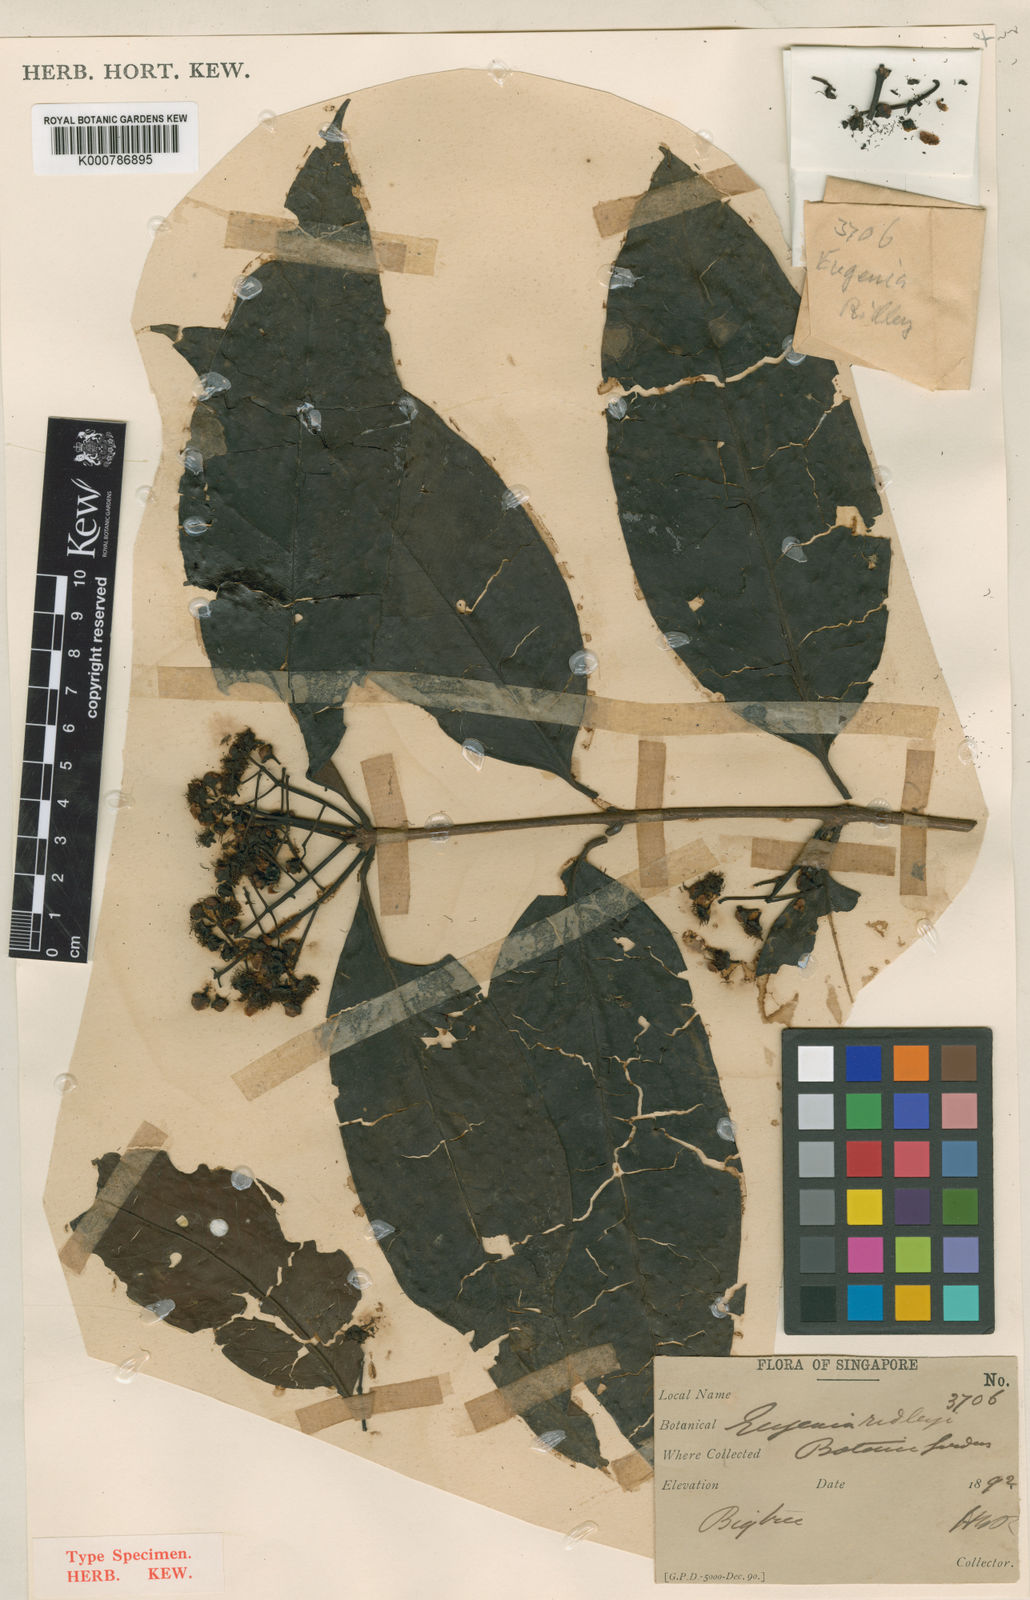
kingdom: Plantae
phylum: Tracheophyta
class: Magnoliopsida
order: Myrtales
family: Myrtaceae
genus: Syzygium
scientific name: Syzygium ridleyi
